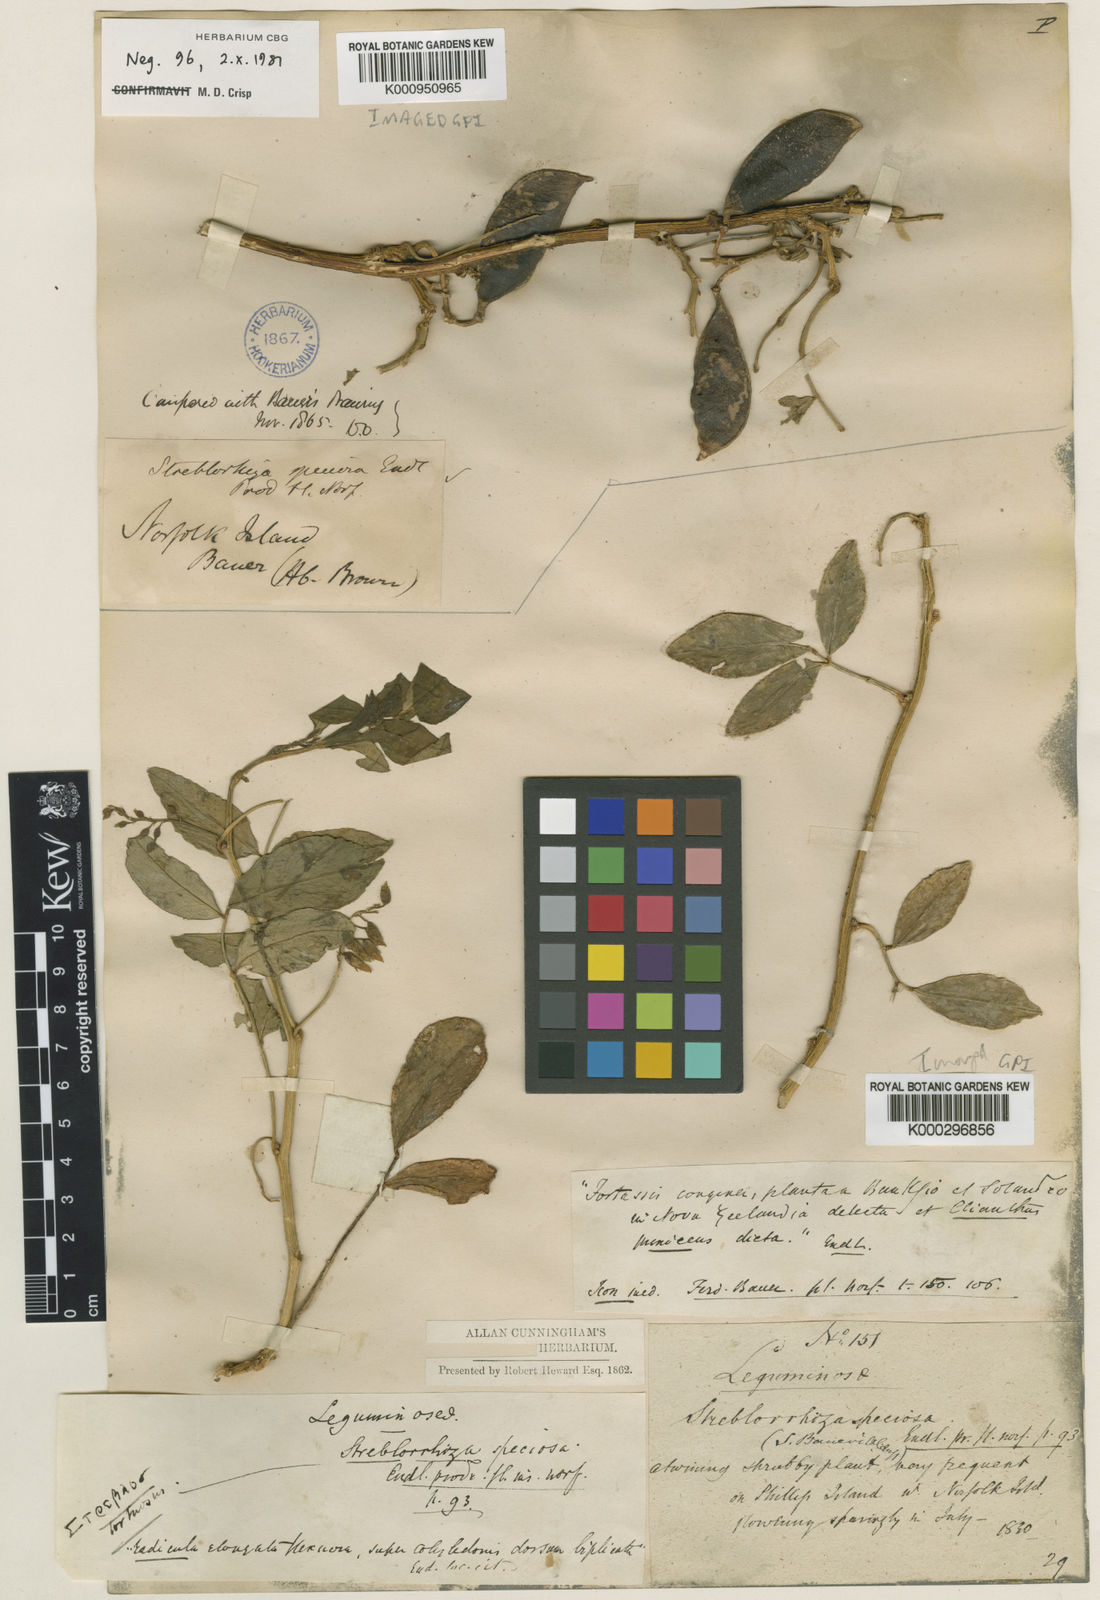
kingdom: Plantae
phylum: Tracheophyta
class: Magnoliopsida
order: Fabales
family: Fabaceae
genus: Streblorrhiza
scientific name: Streblorrhiza speciosa
